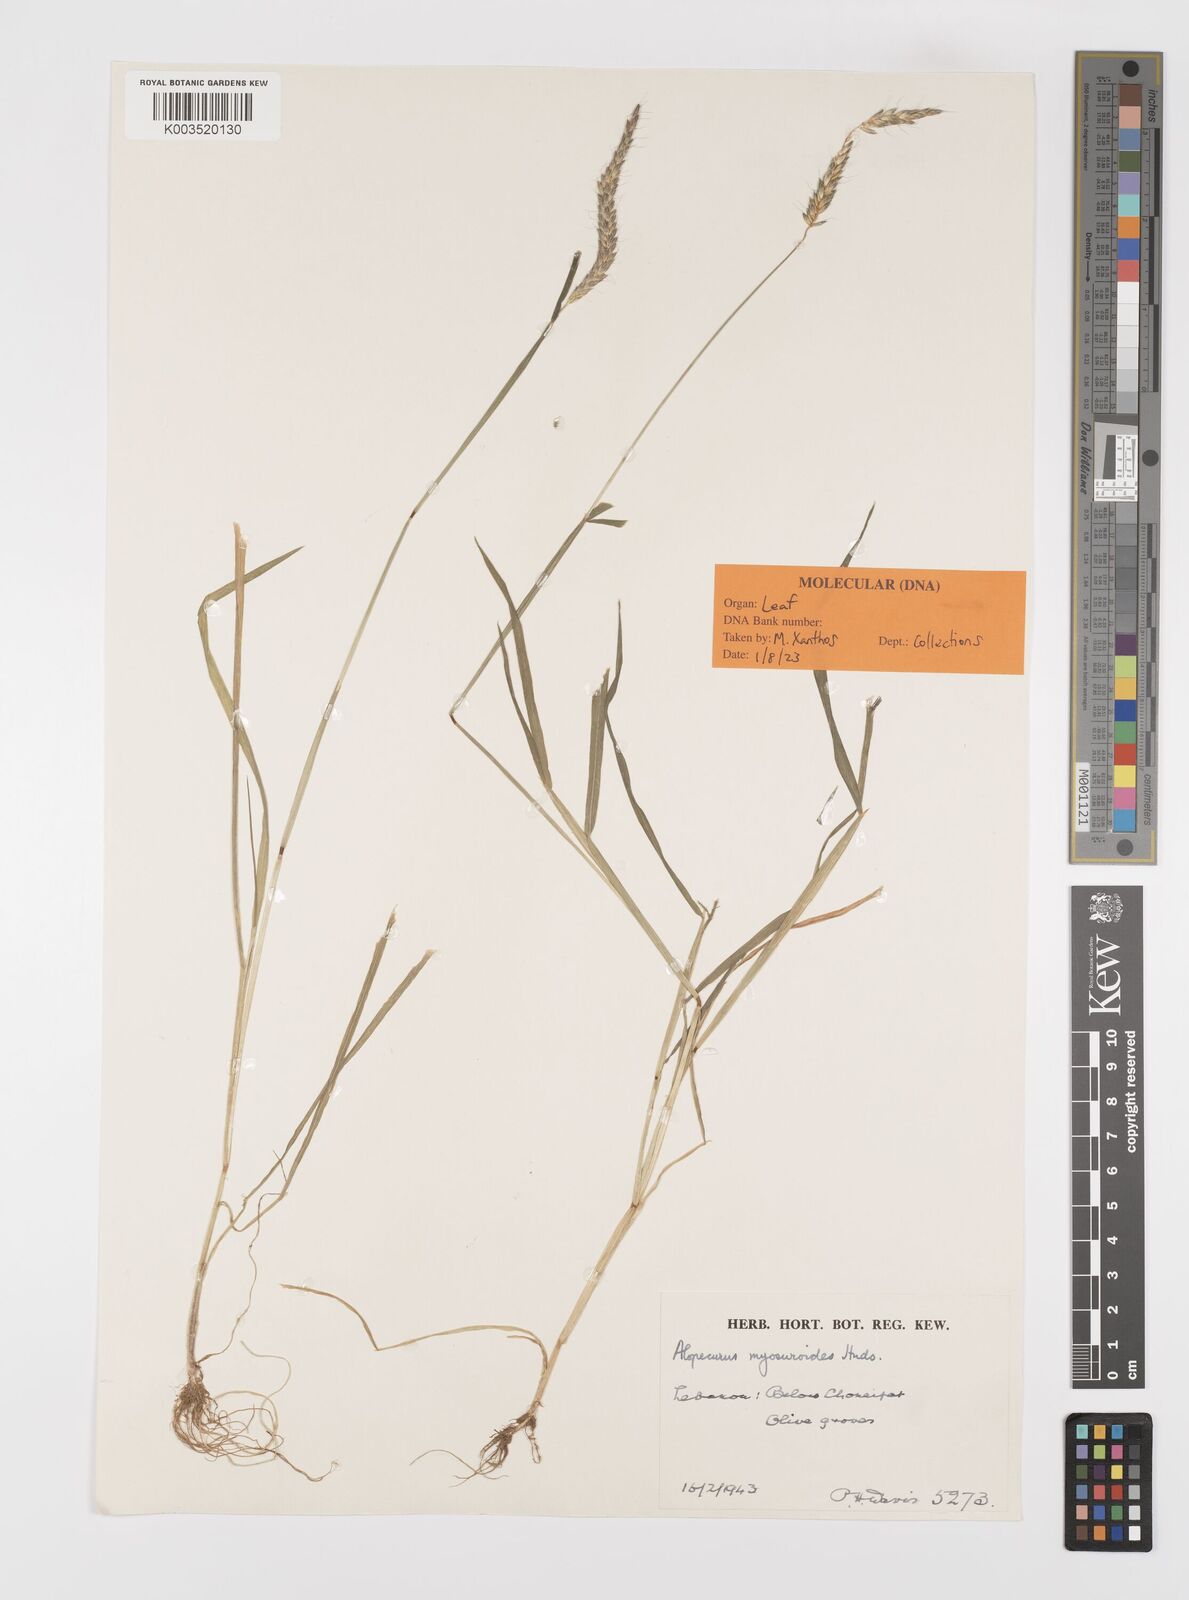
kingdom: Plantae
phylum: Tracheophyta
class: Liliopsida
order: Poales
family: Poaceae
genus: Alopecurus
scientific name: Alopecurus myosuroides
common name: Black-grass
